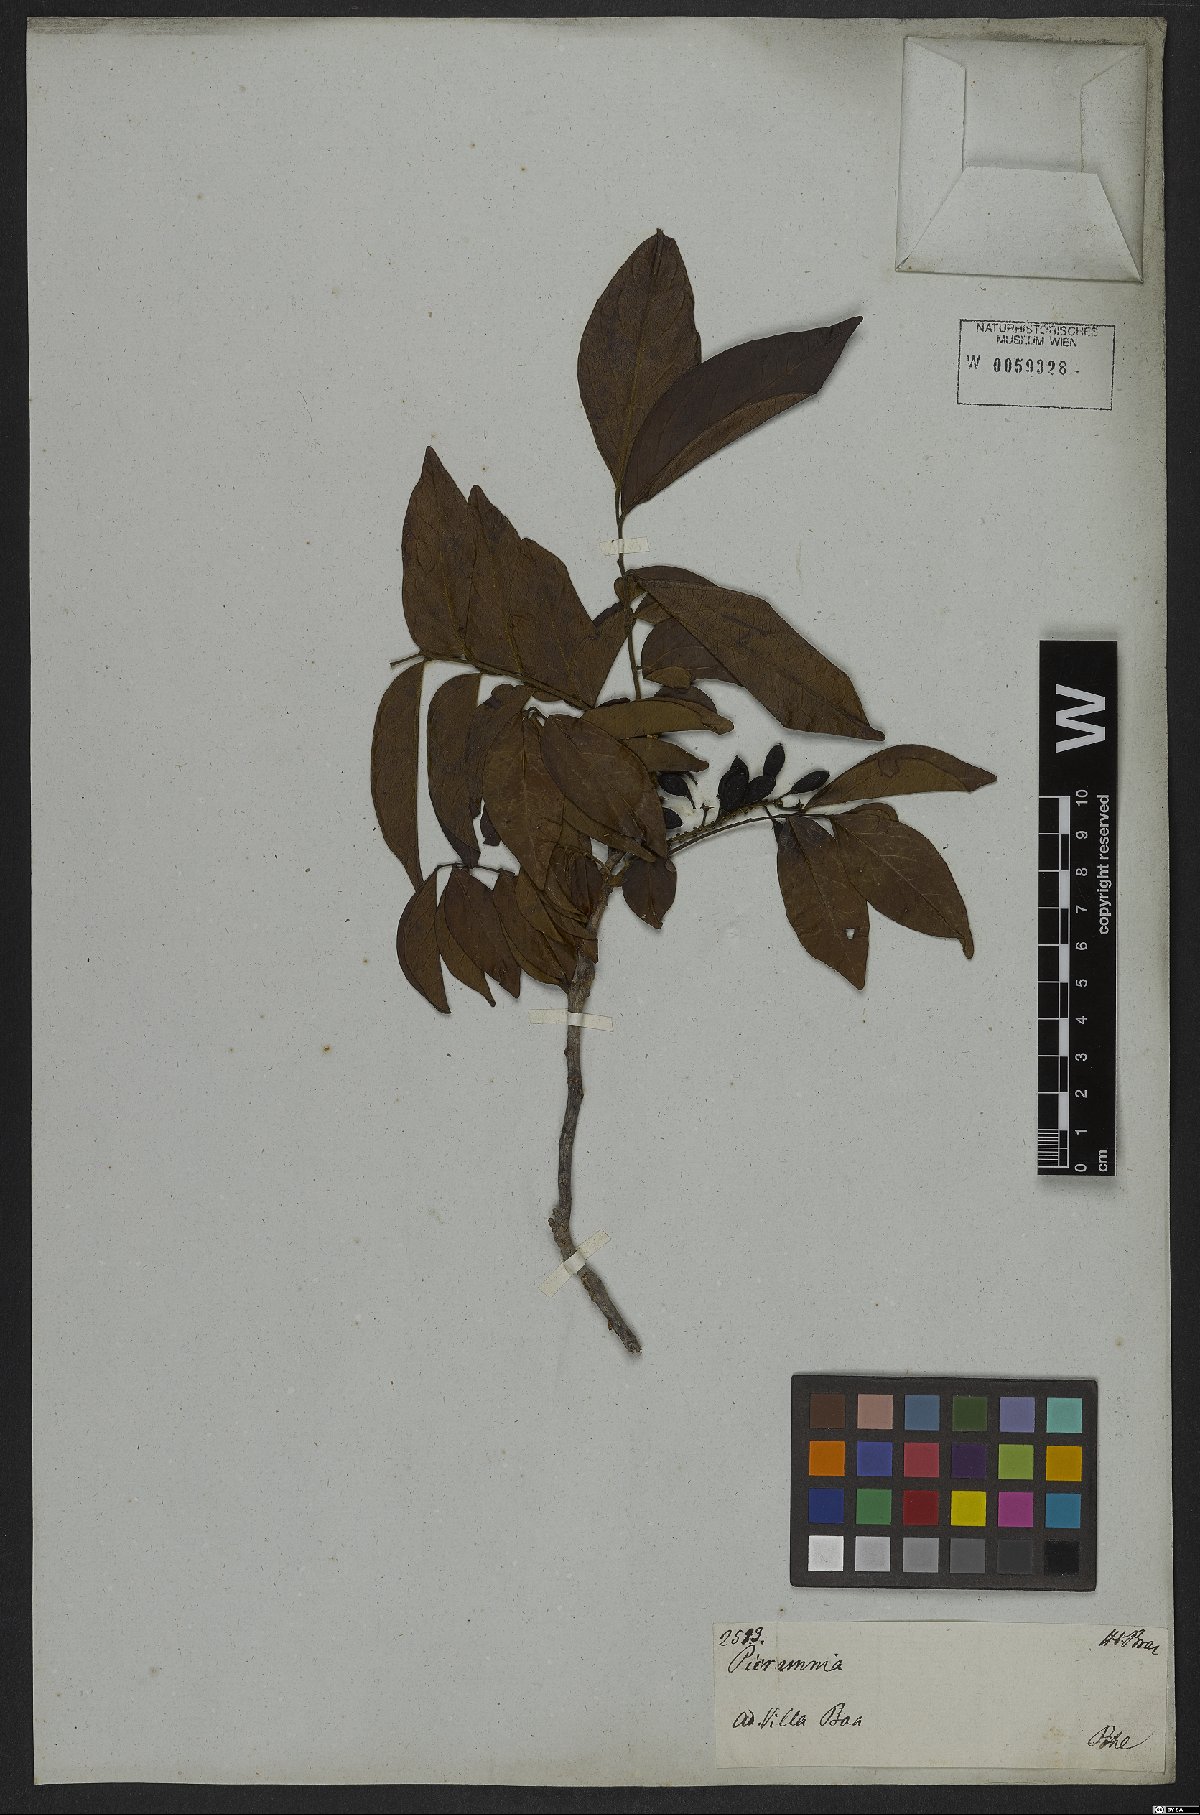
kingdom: Plantae
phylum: Tracheophyta
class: Magnoliopsida
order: Picramniales
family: Picramniaceae
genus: Picramnia
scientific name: Picramnia sellowii
